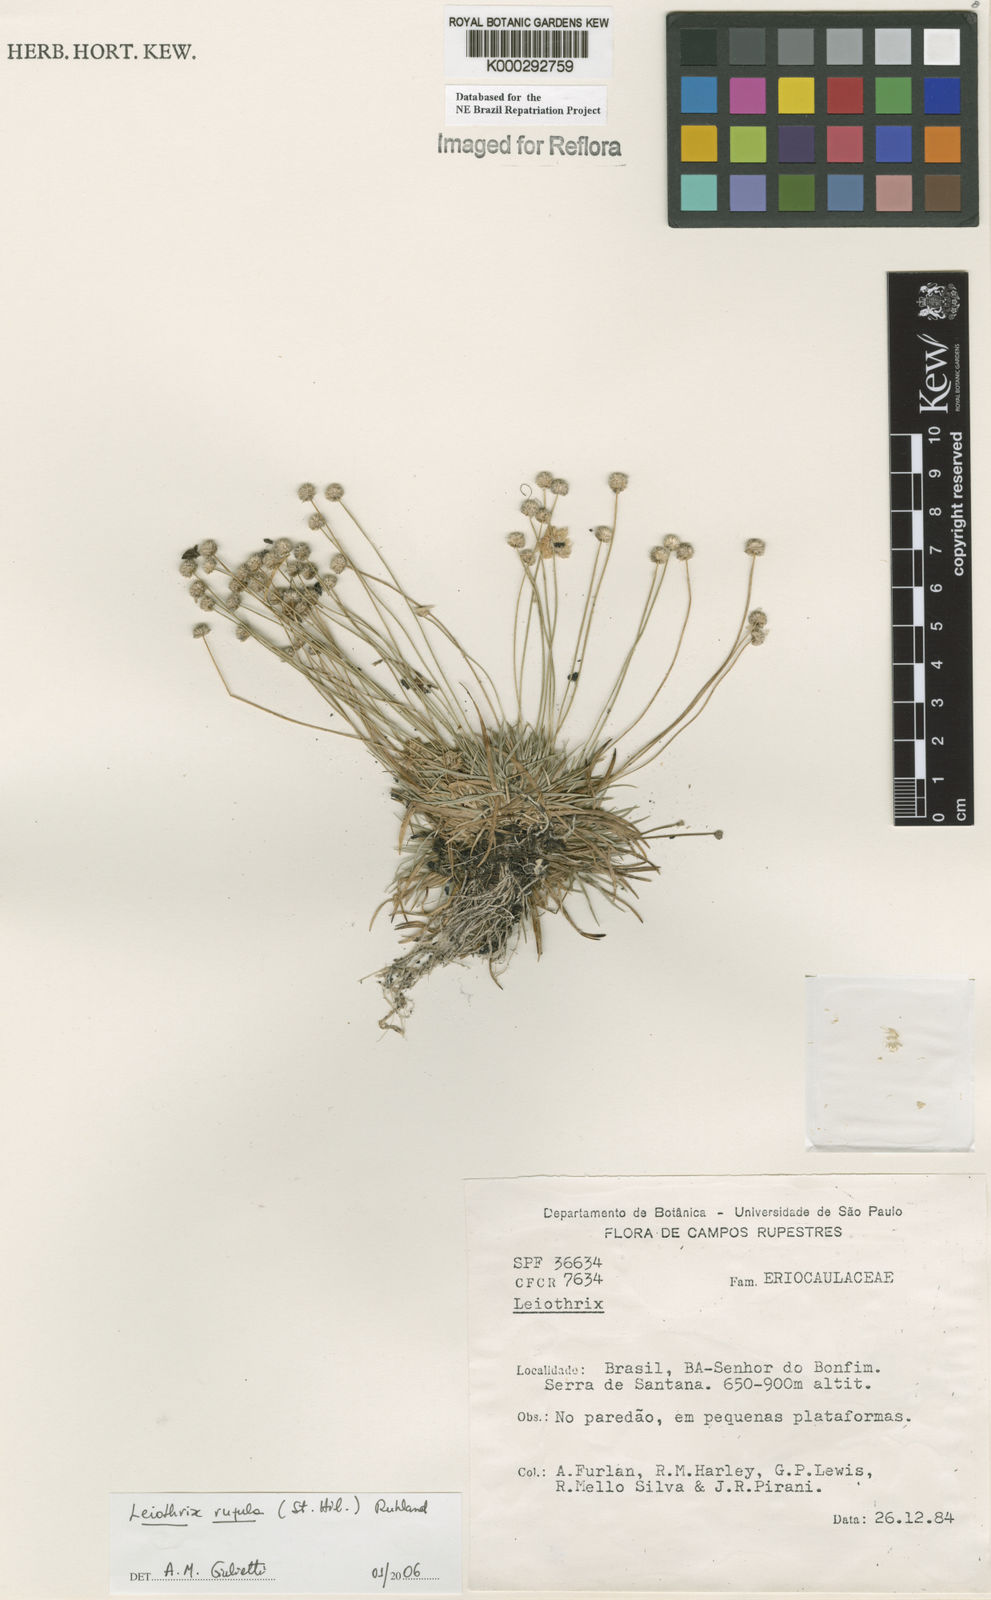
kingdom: Plantae
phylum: Tracheophyta
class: Liliopsida
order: Poales
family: Eriocaulaceae
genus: Leiothrix
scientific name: Leiothrix
